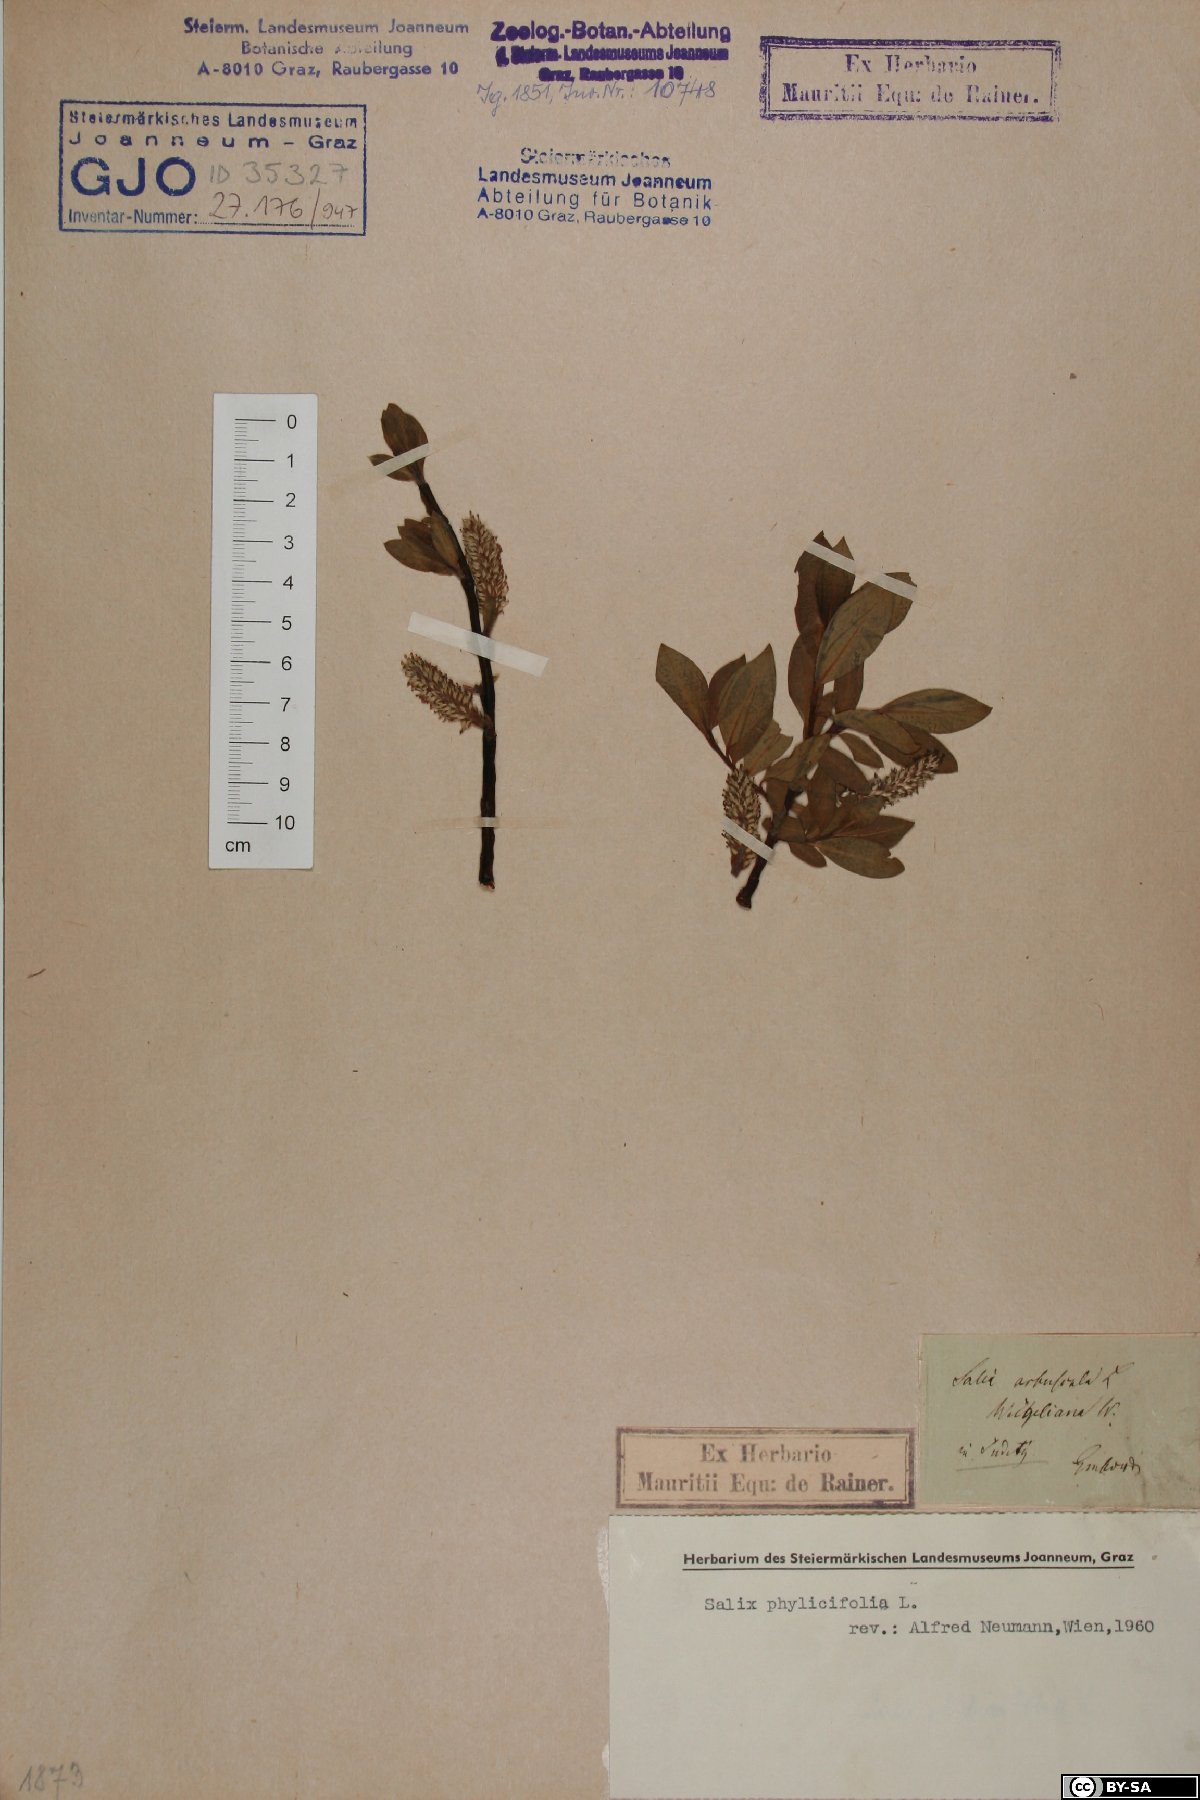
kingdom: Plantae
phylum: Tracheophyta
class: Magnoliopsida
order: Malpighiales
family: Salicaceae
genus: Salix
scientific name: Salix phylicifolia
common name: Tea-leaved willow
